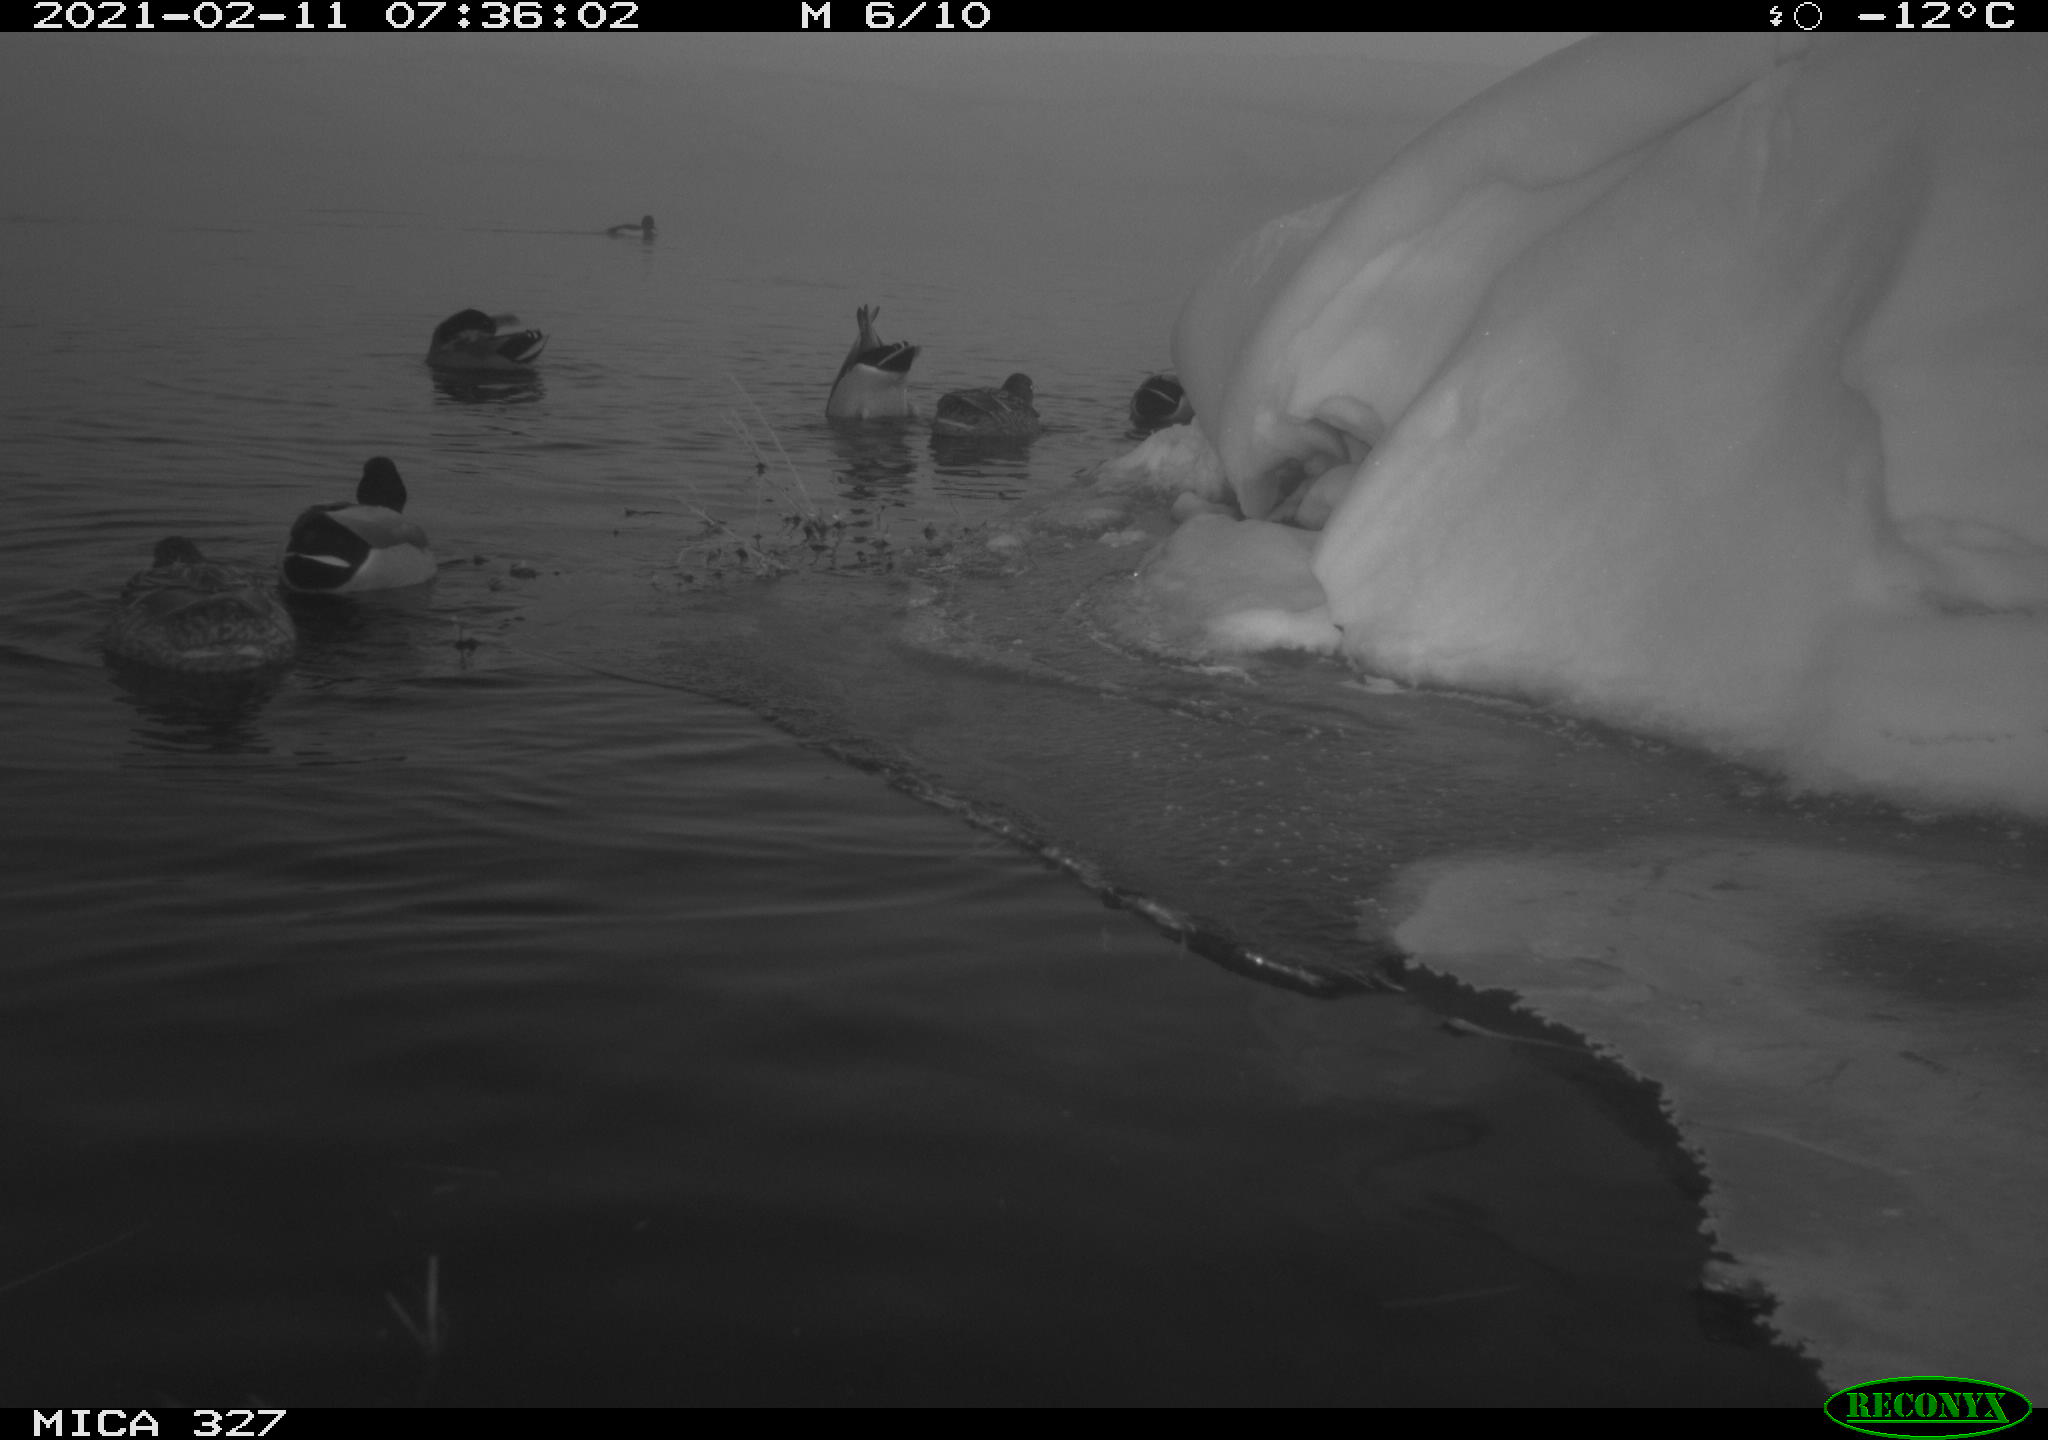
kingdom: Animalia
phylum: Chordata
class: Aves
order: Anseriformes
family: Anatidae
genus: Anas
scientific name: Anas platyrhynchos
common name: Mallard
